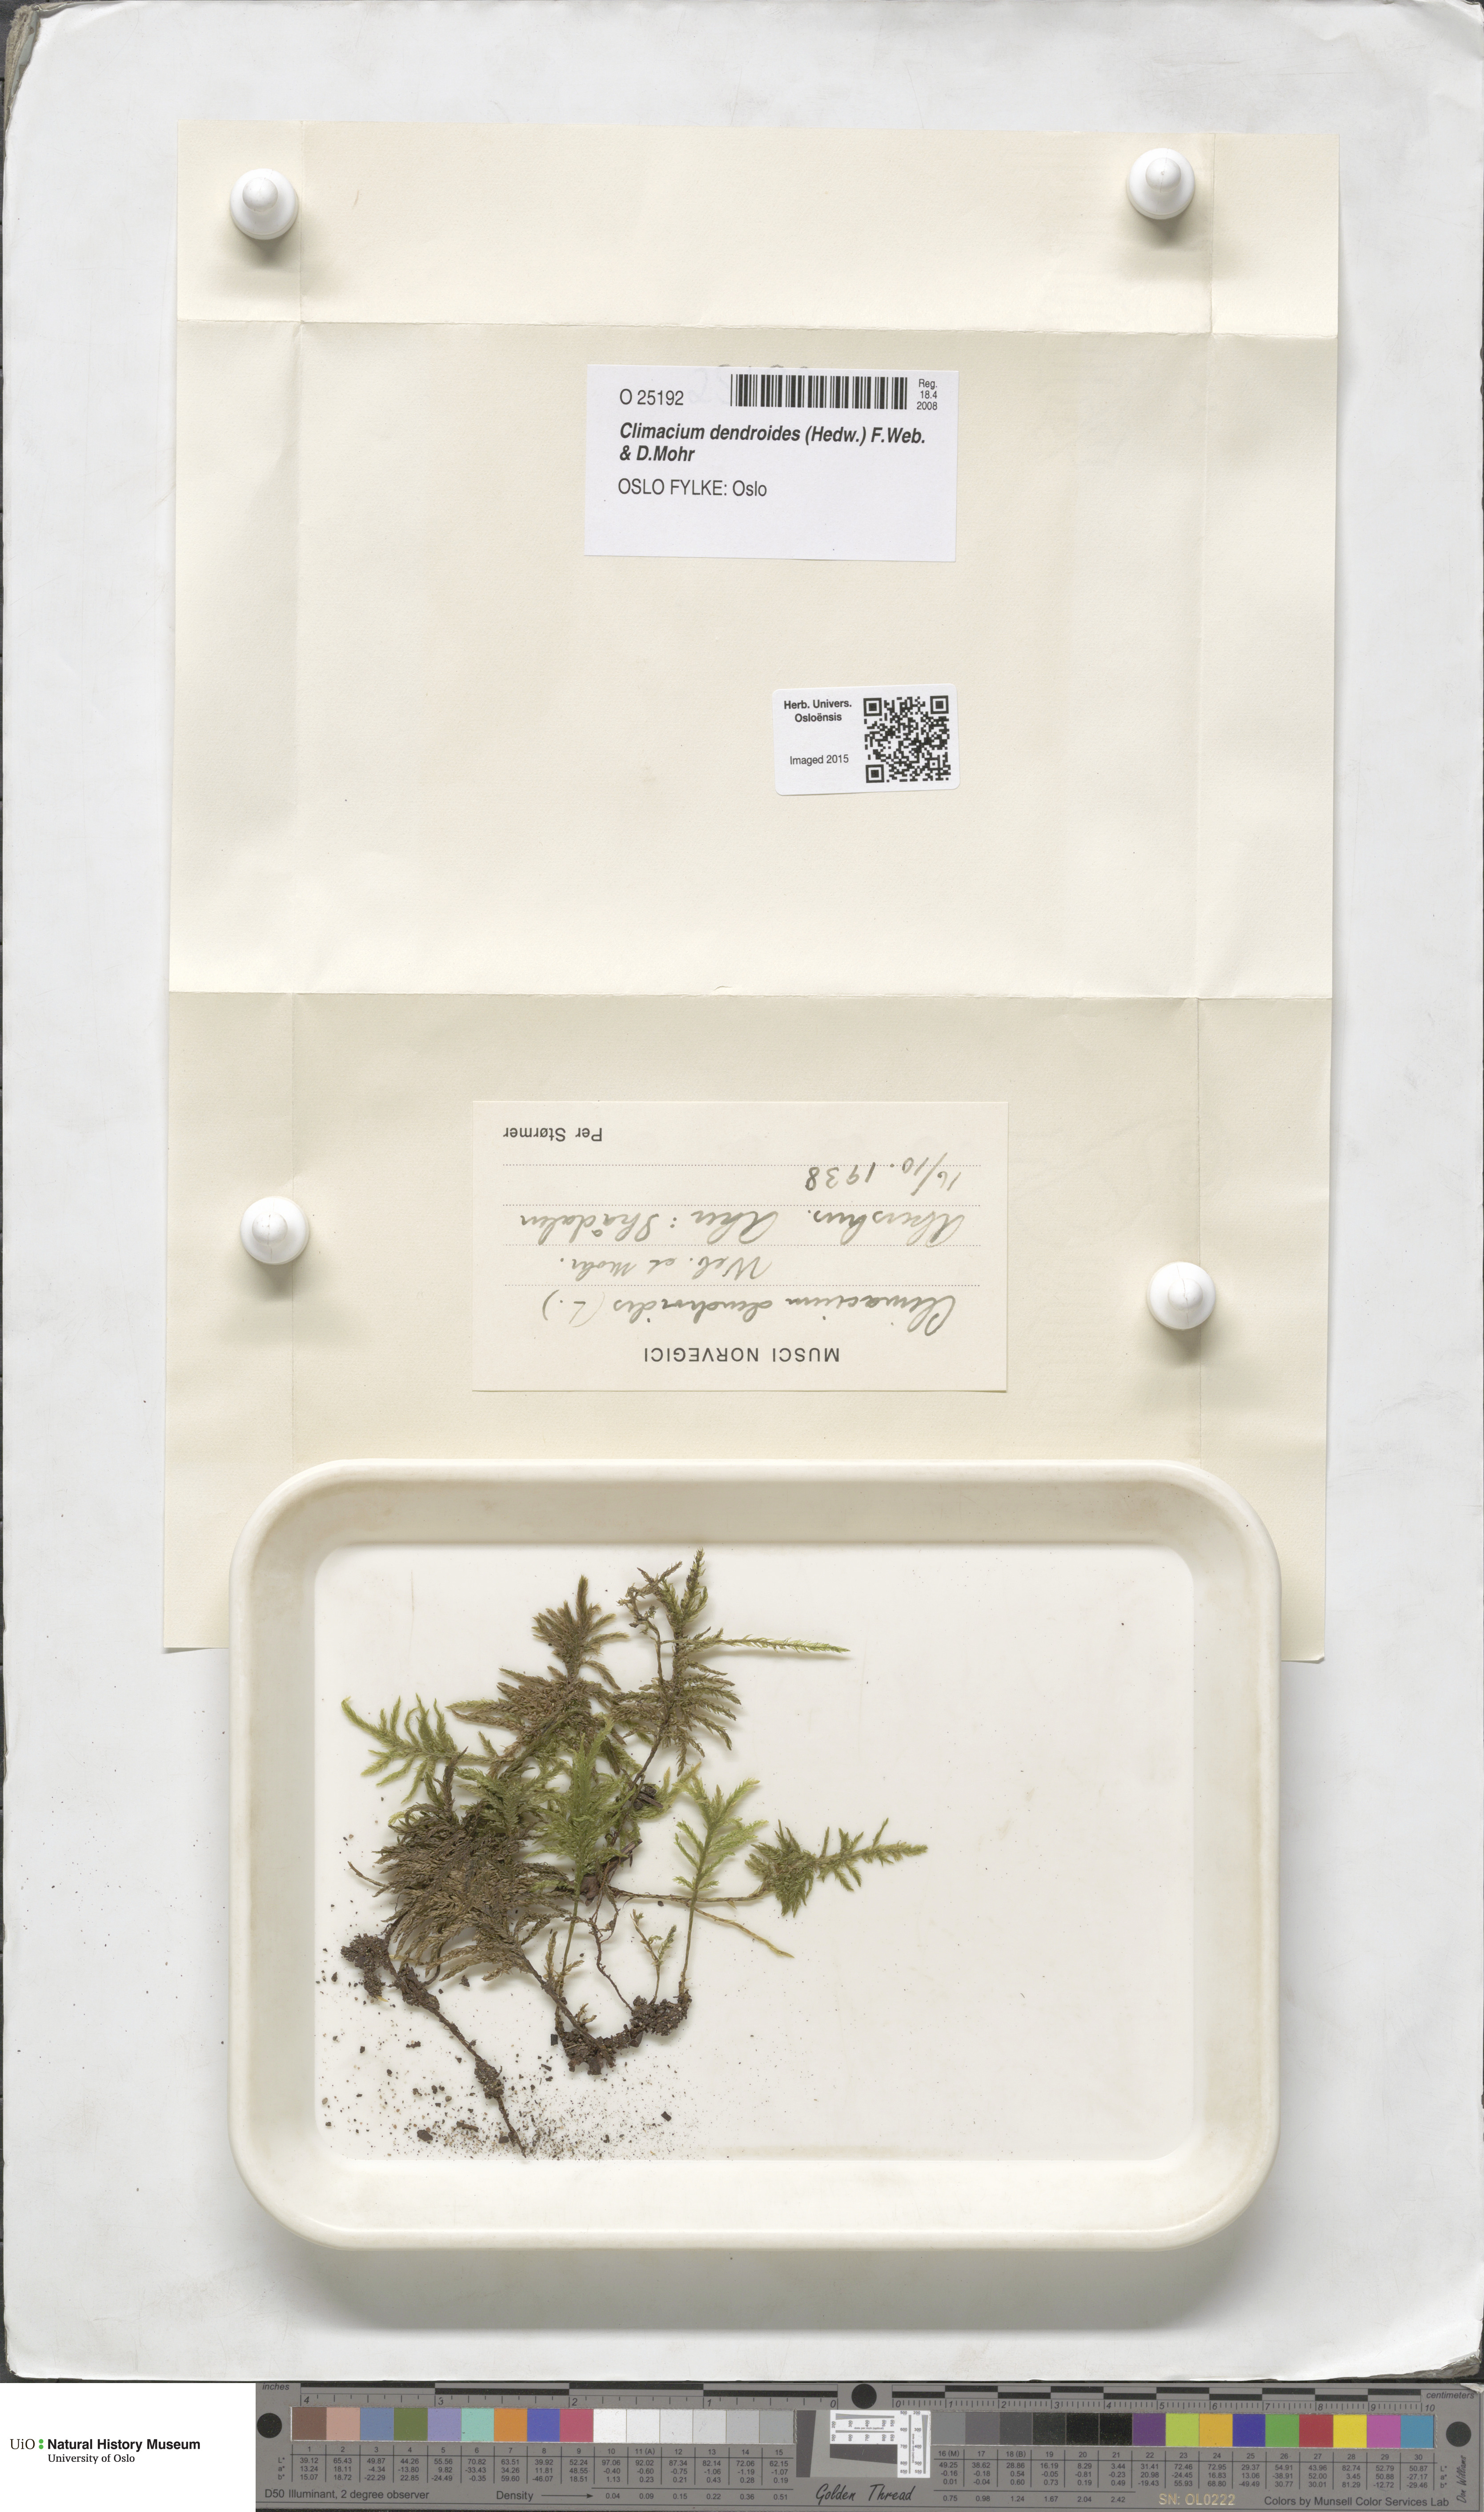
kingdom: Plantae
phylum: Bryophyta
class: Bryopsida
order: Hypnales
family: Climaciaceae
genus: Climacium
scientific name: Climacium dendroides
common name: Northern tree moss
